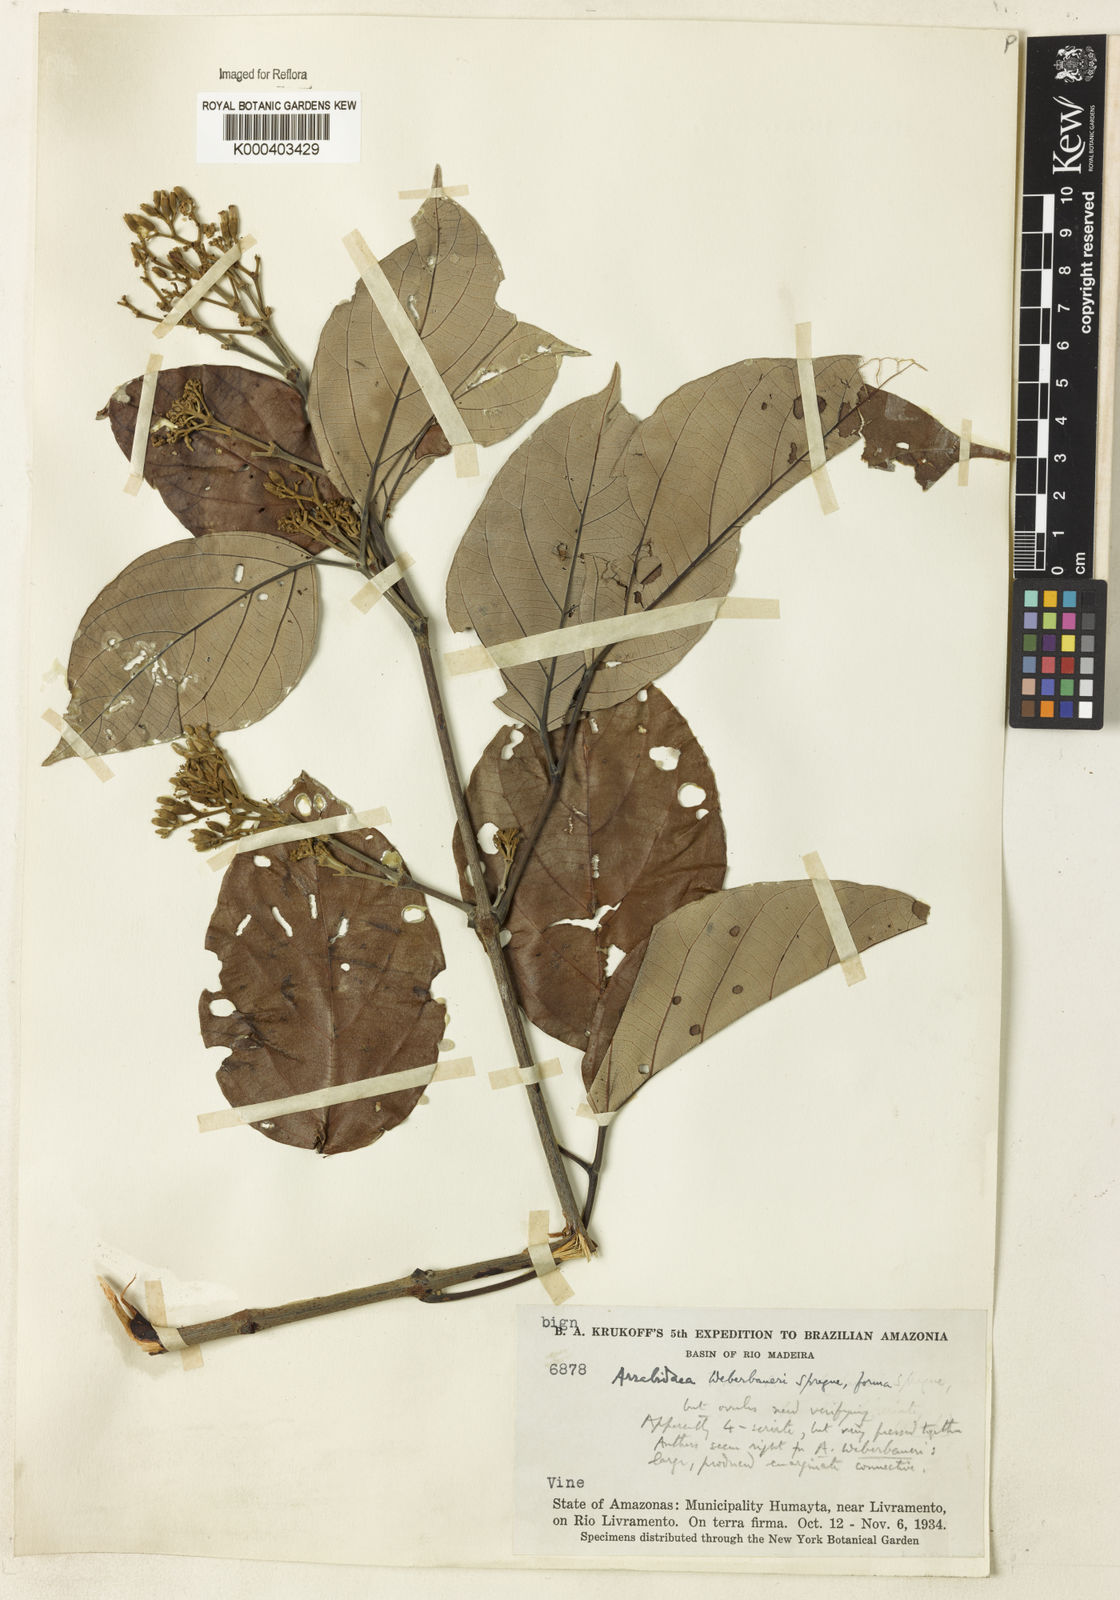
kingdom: Plantae
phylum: Tracheophyta
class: Magnoliopsida
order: Lamiales
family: Bignoniaceae
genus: Cuspidaria
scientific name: Cuspidaria weberbaueri
